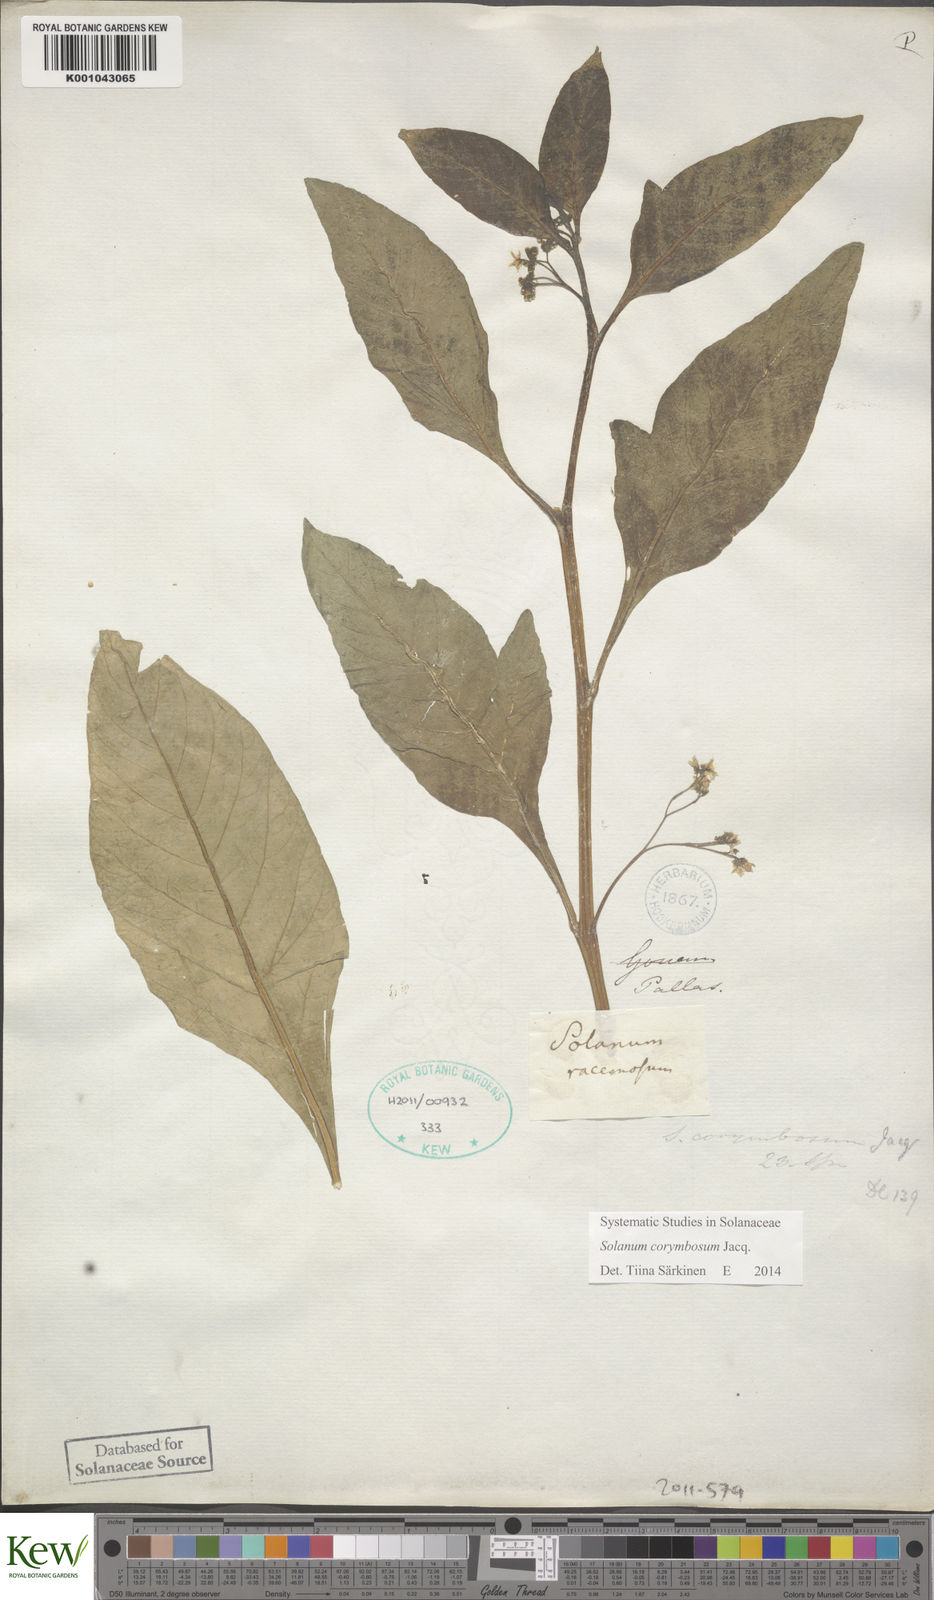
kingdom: Plantae
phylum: Tracheophyta
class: Magnoliopsida
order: Solanales
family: Solanaceae
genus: Solanum
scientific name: Solanum corymbosum
